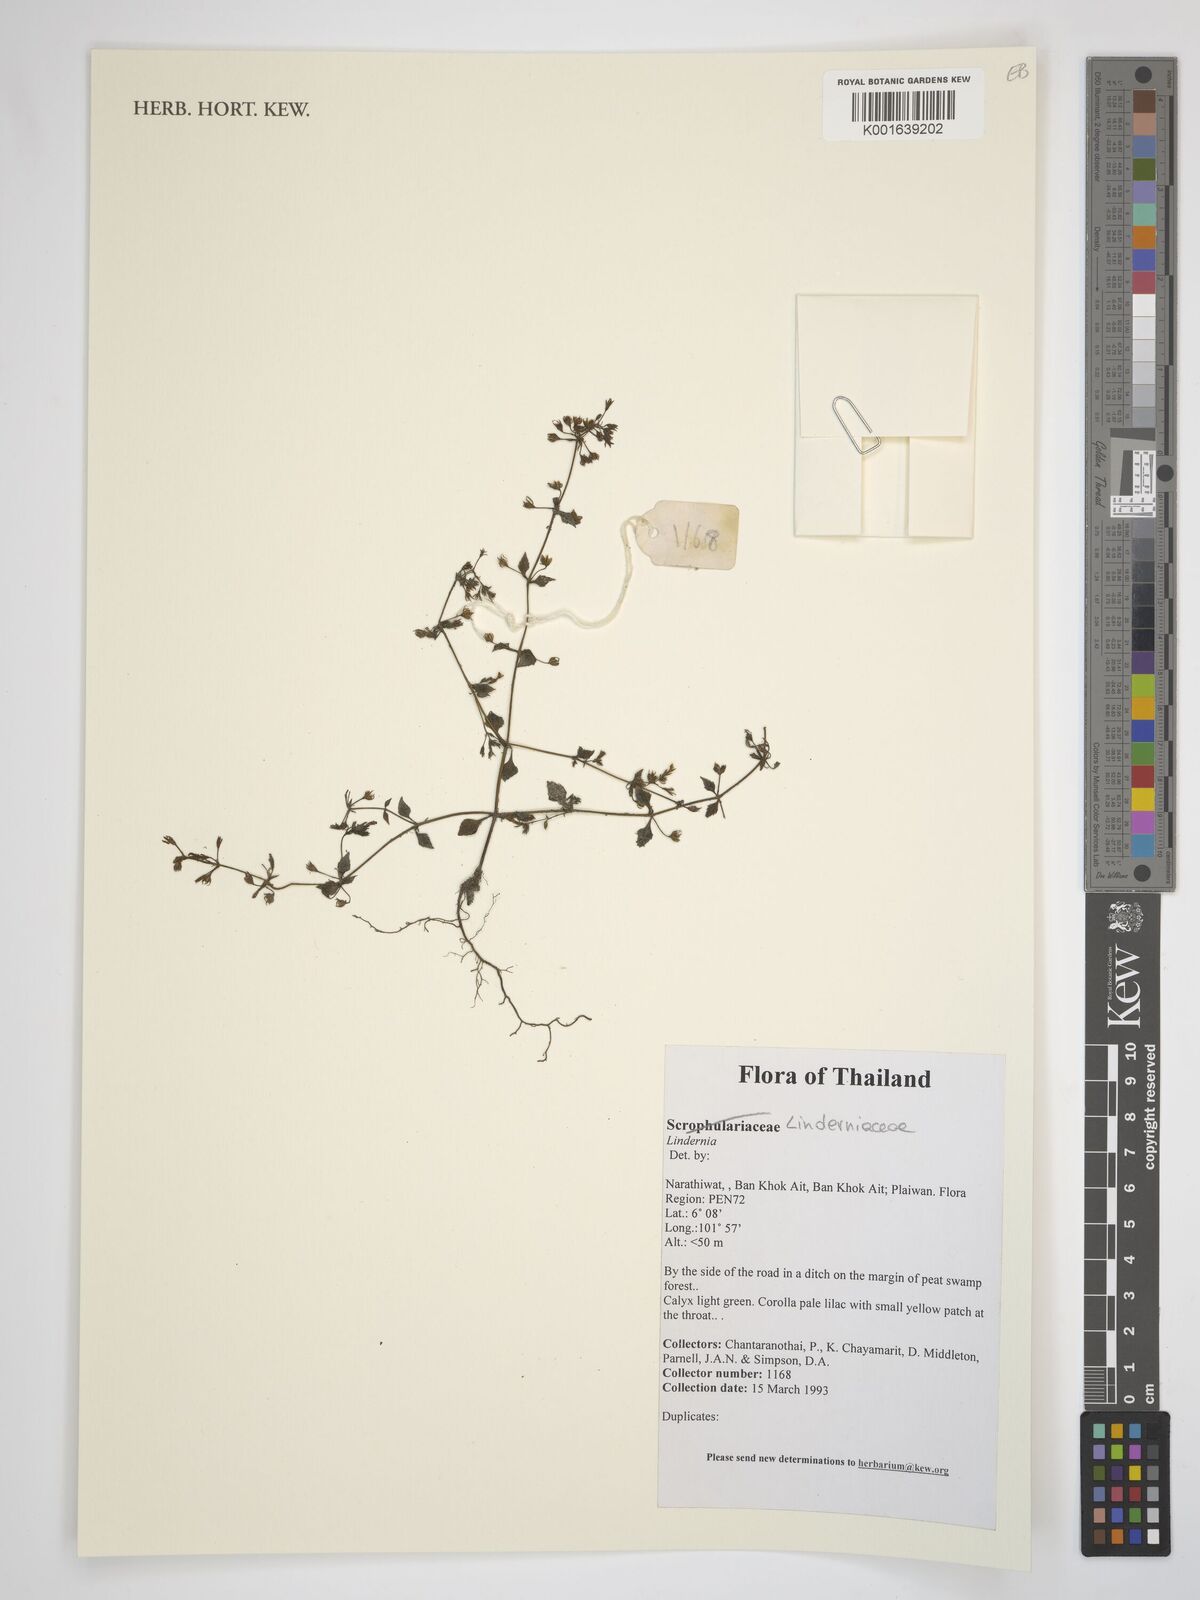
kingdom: Plantae
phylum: Tracheophyta
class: Magnoliopsida
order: Lamiales
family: Linderniaceae
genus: Lindernia
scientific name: Lindernia
